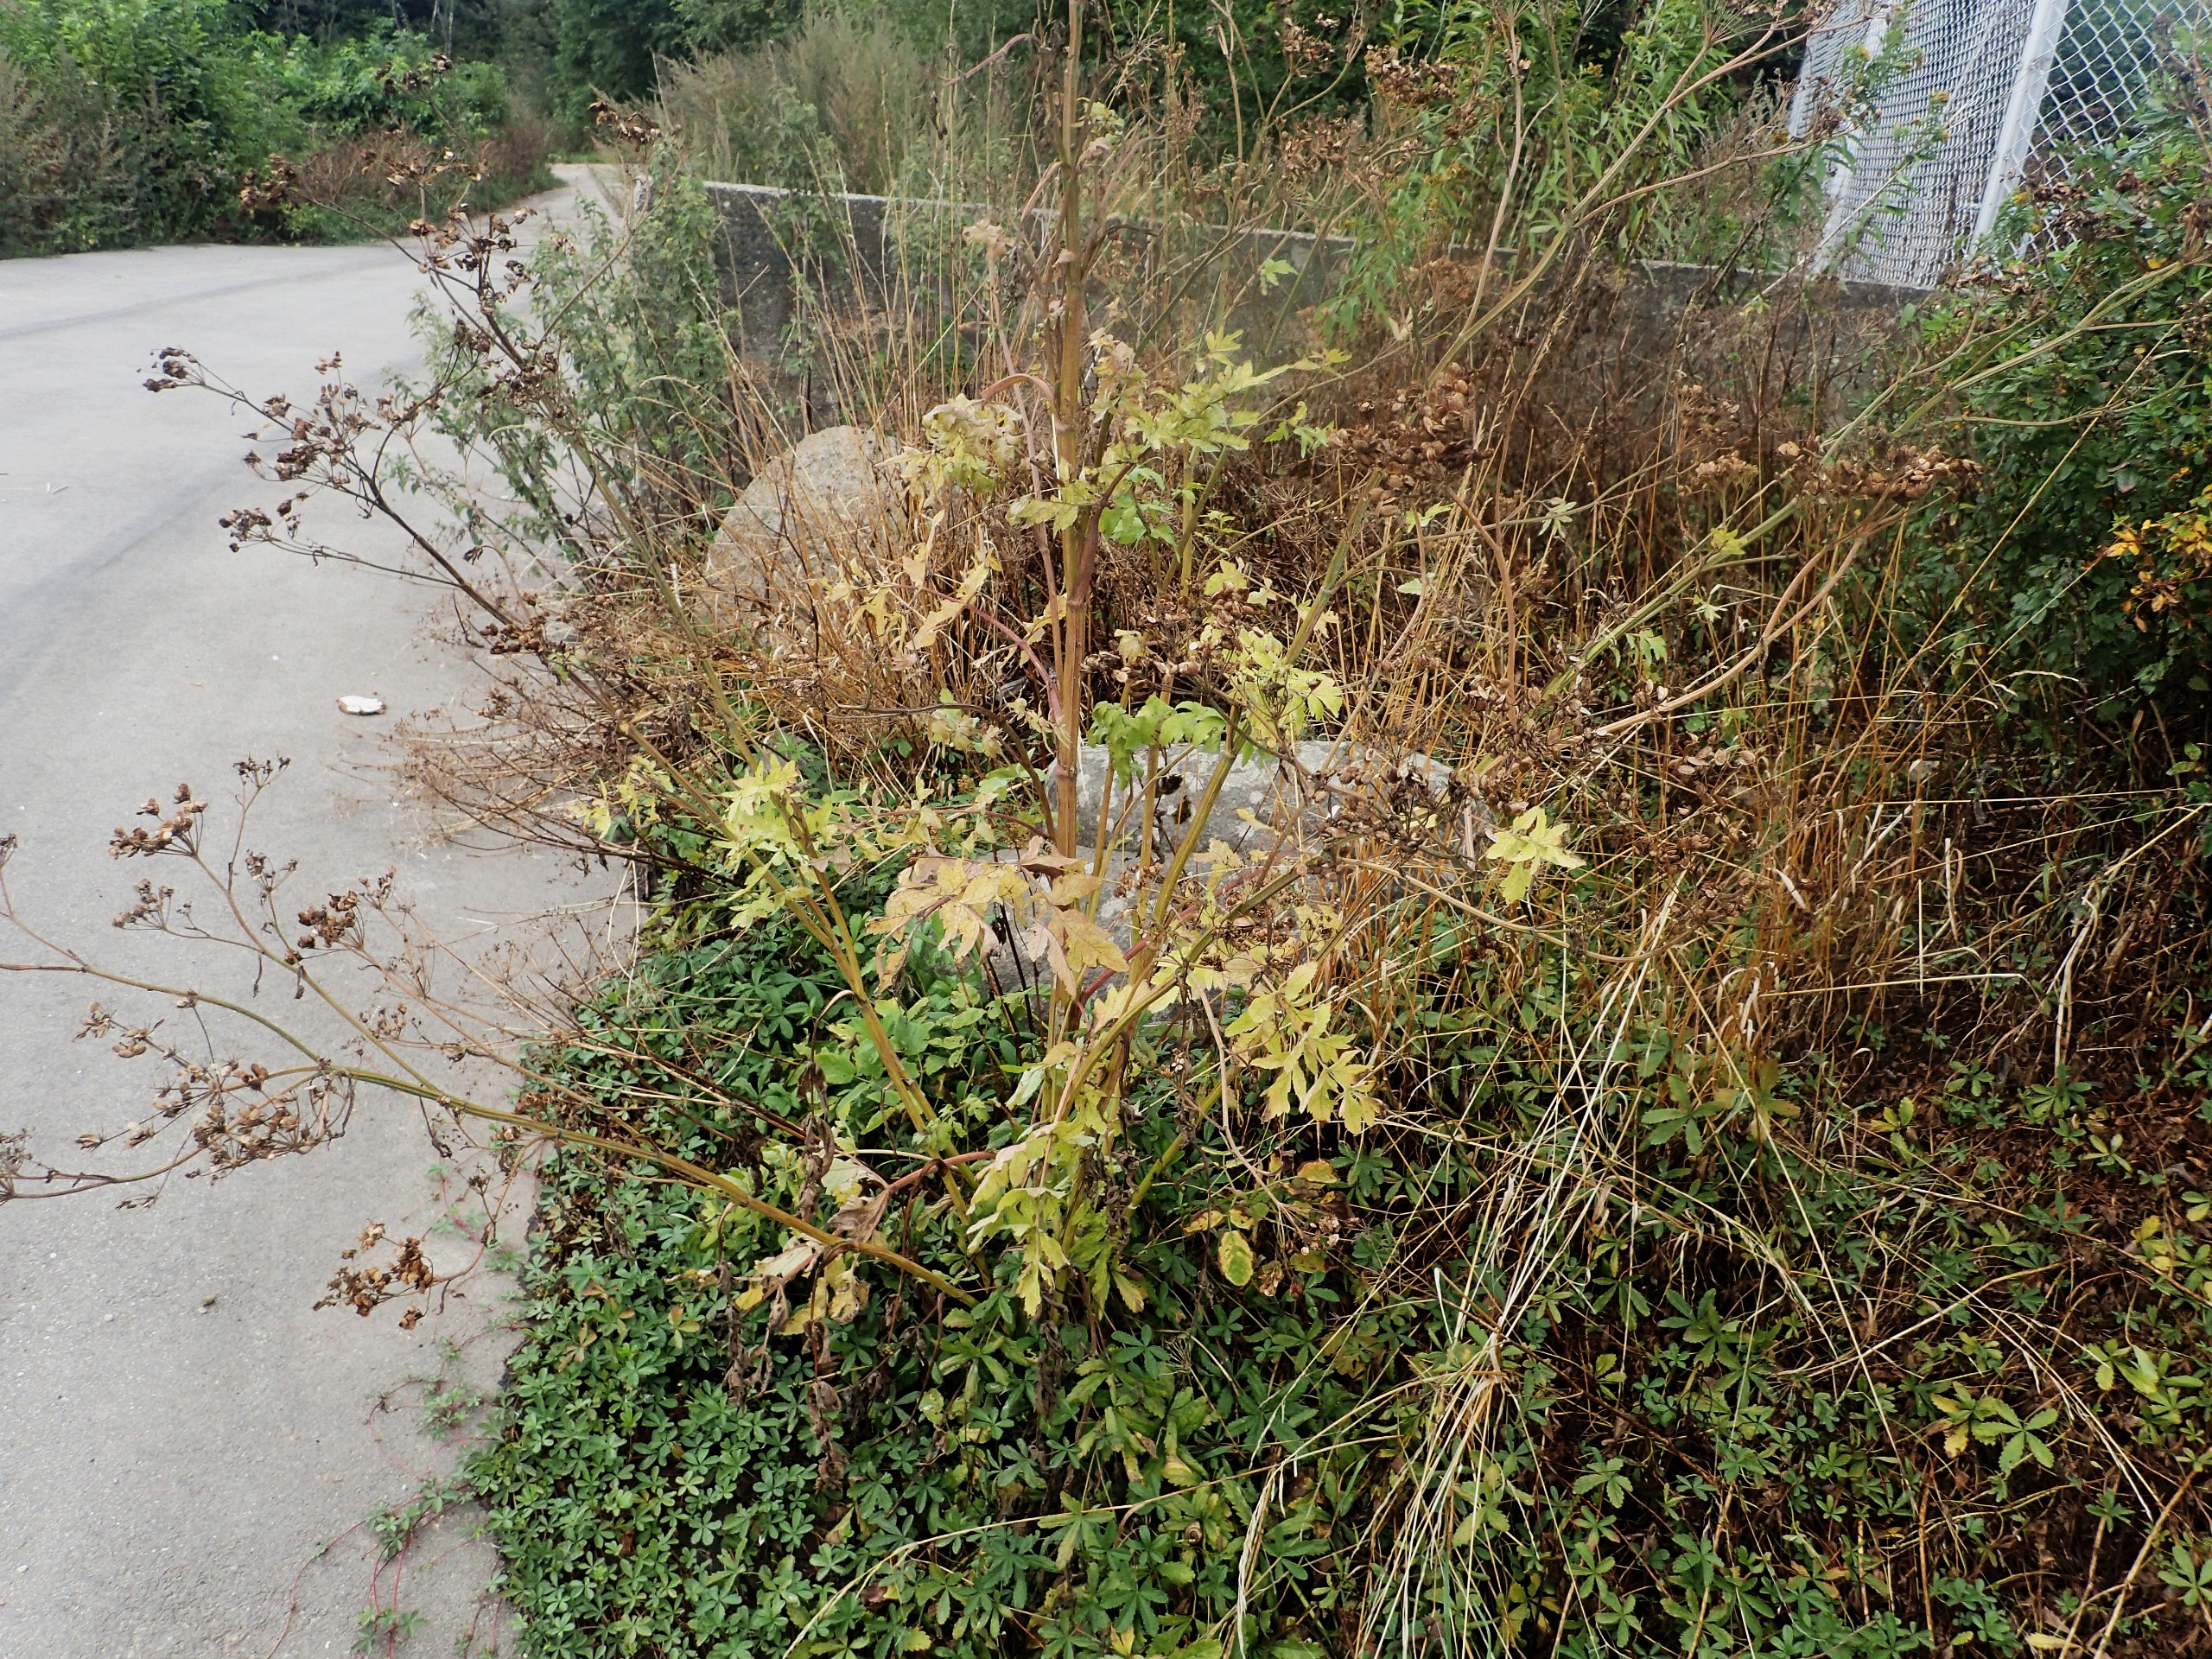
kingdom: Plantae
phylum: Tracheophyta
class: Magnoliopsida
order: Apiales
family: Apiaceae
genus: Pastinaca
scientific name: Pastinaca sativa
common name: Pastinak
